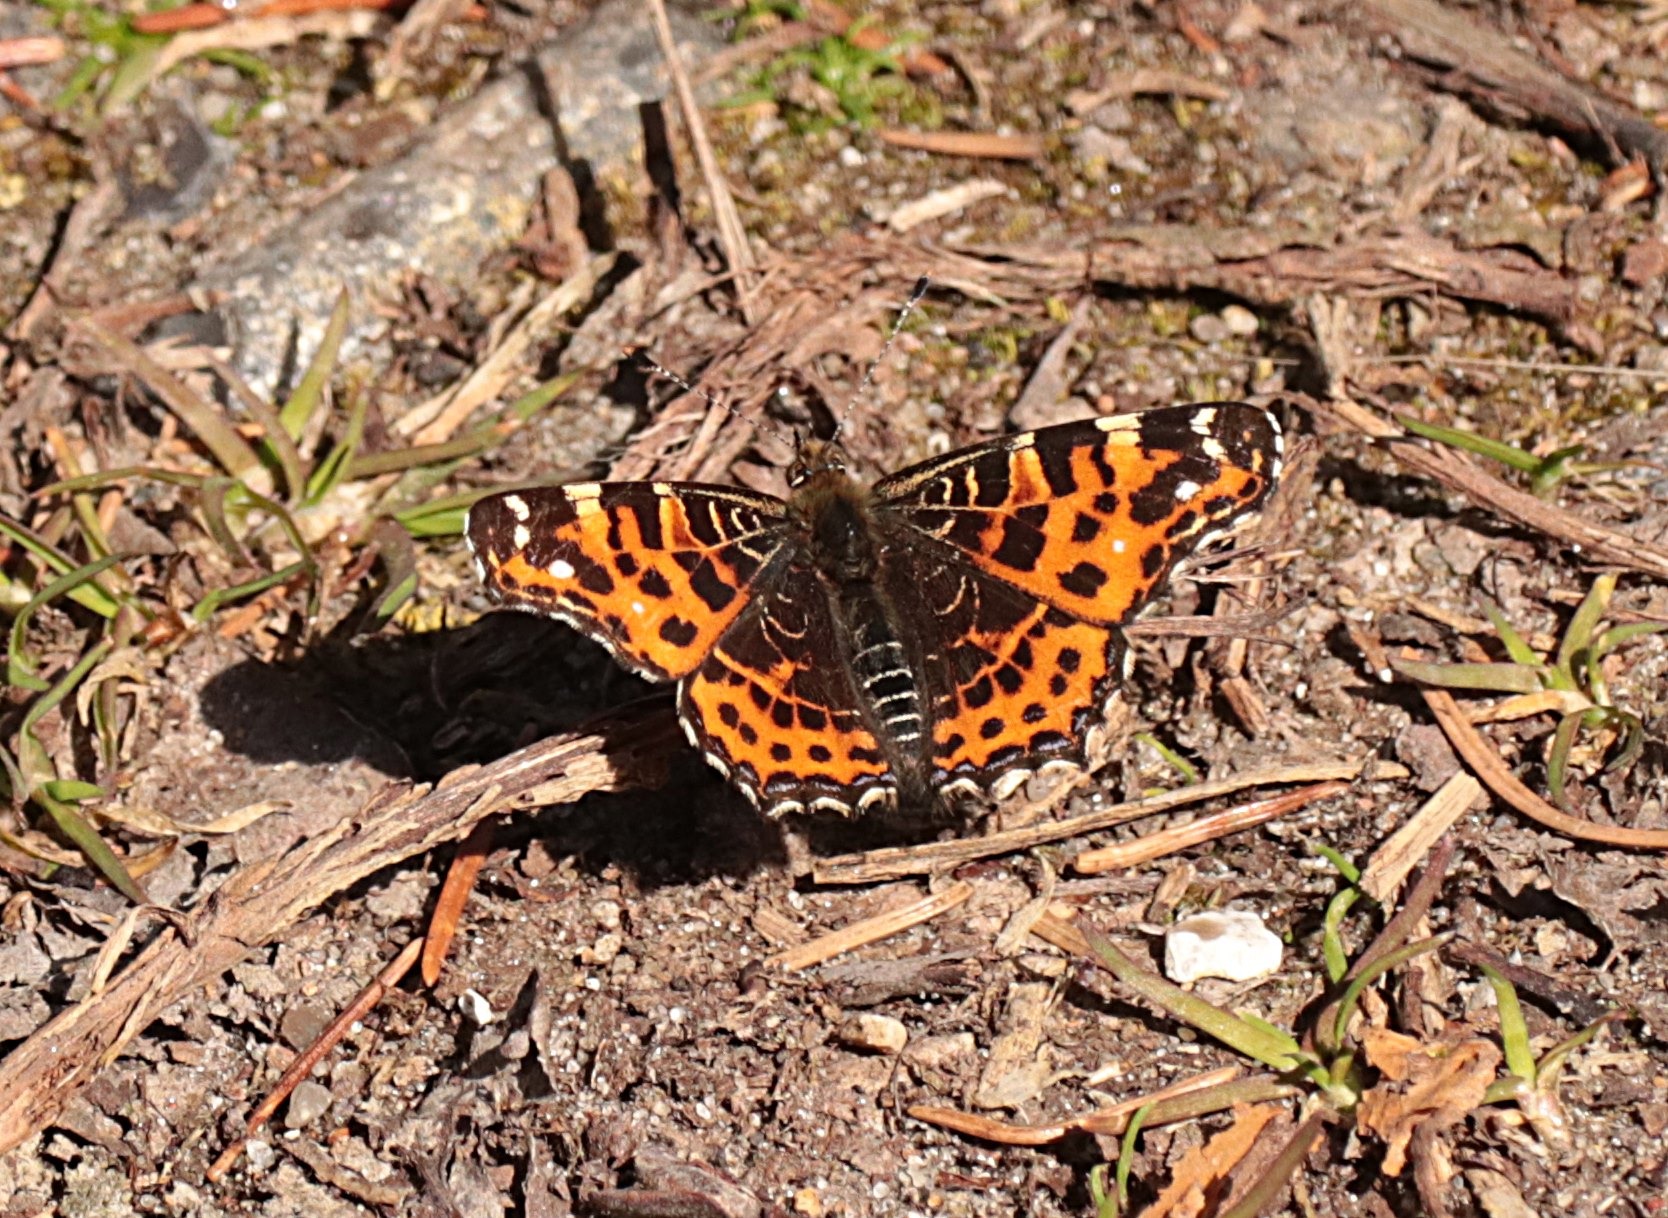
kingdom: Animalia
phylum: Arthropoda
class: Insecta
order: Lepidoptera
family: Nymphalidae
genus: Araschnia
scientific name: Araschnia levana
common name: Nældesommerfugl
